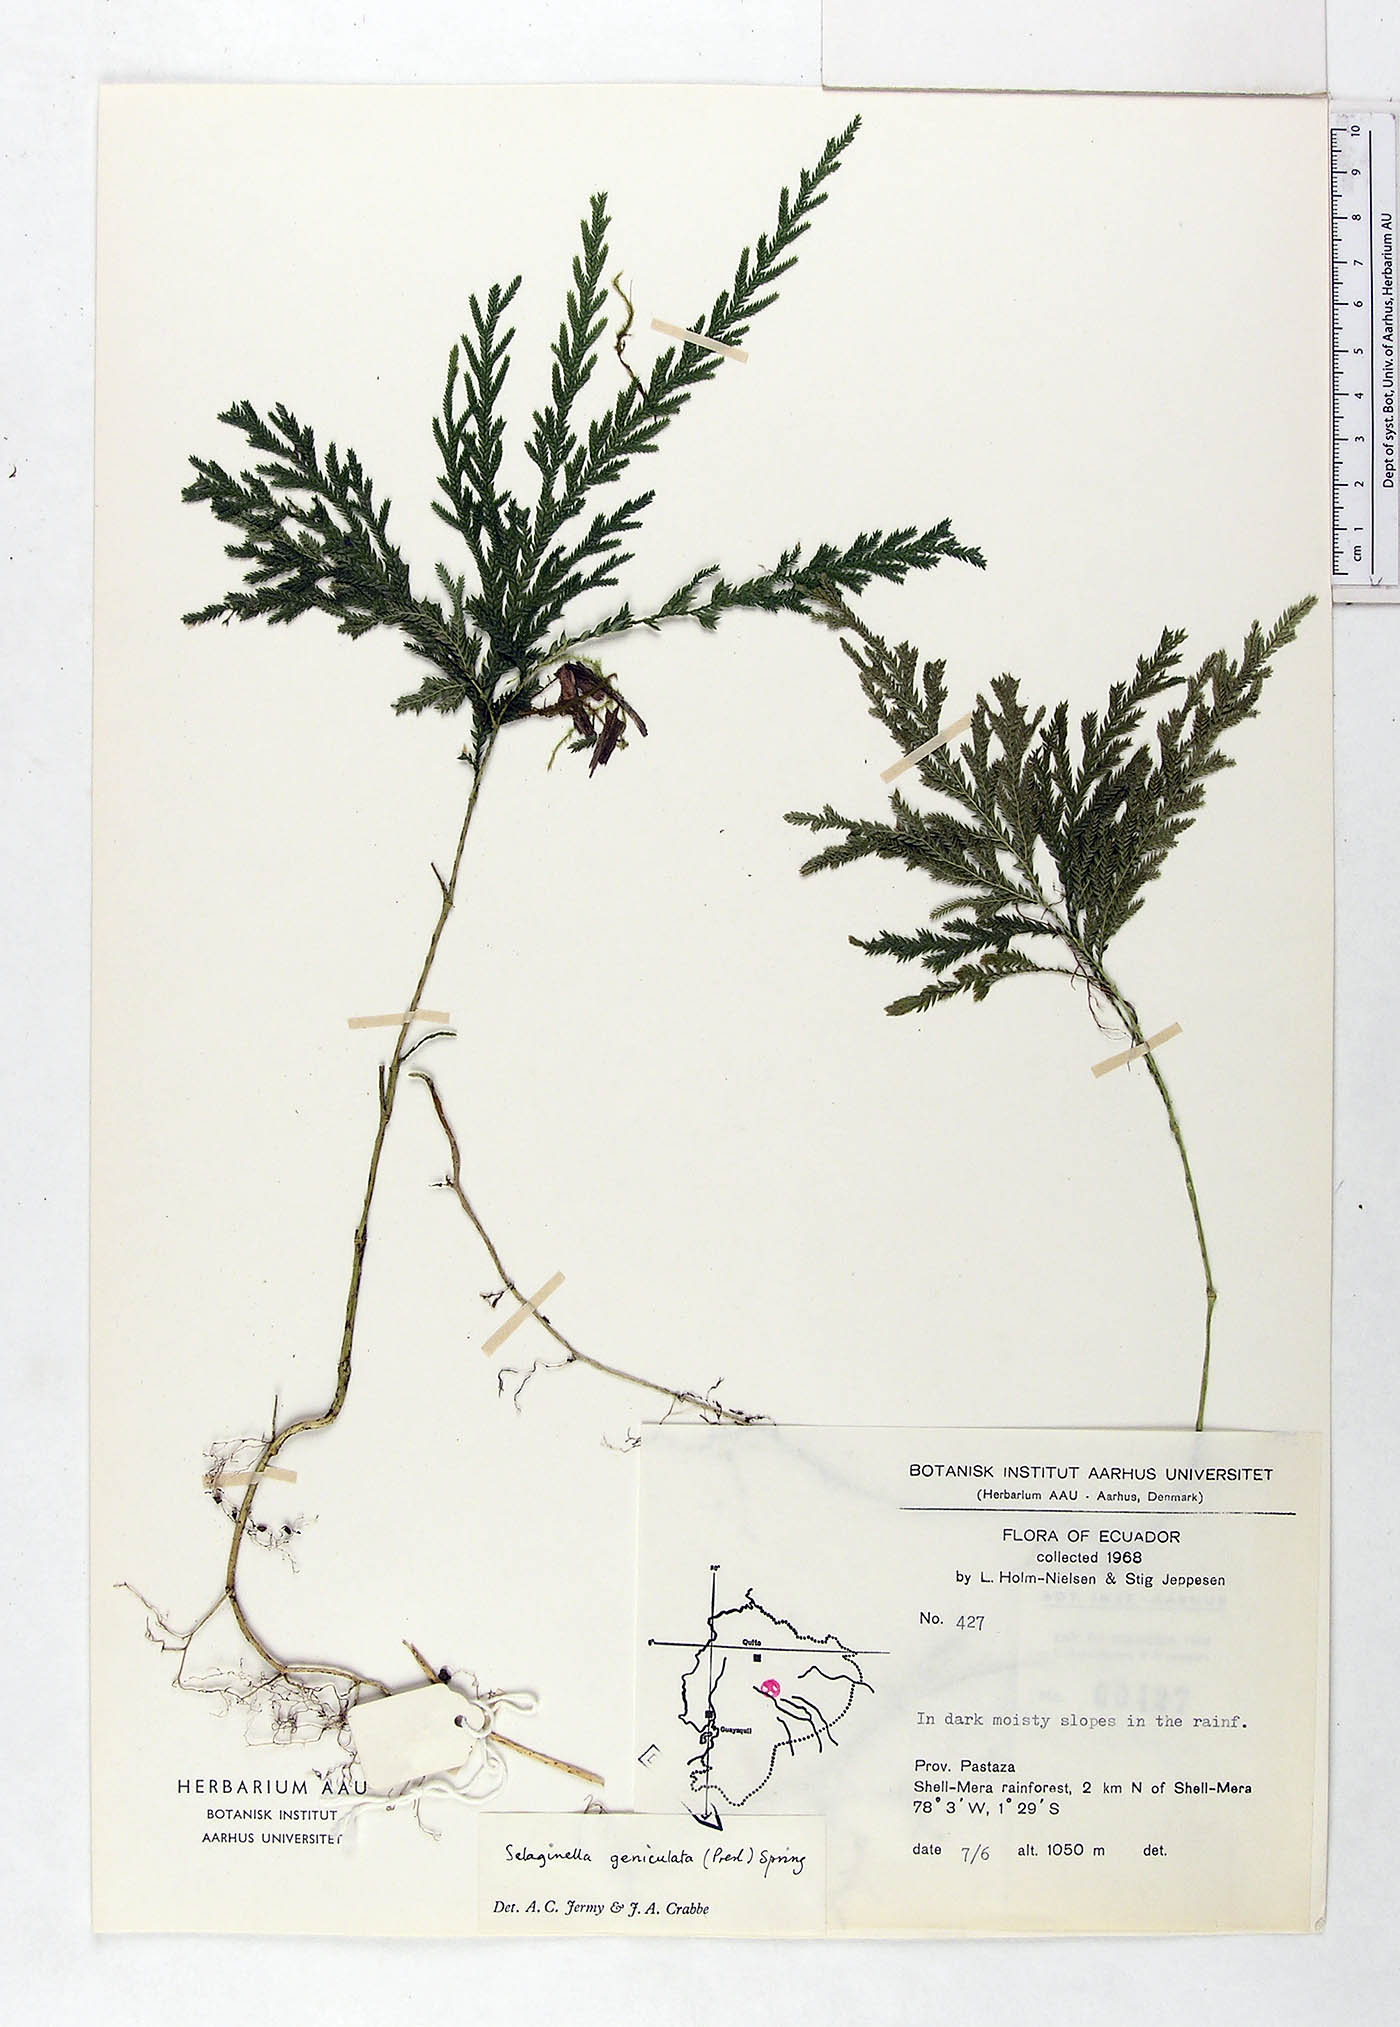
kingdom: Plantae
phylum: Tracheophyta
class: Lycopodiopsida
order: Selaginellales
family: Selaginellaceae
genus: Selaginella
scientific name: Selaginella geniculata
